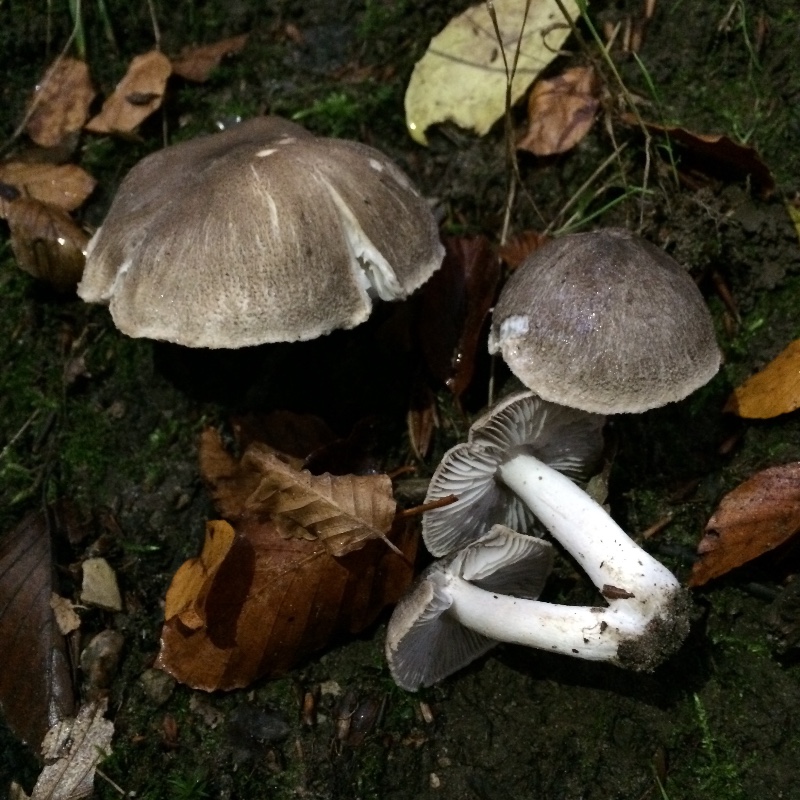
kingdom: Fungi
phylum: Basidiomycota
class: Agaricomycetes
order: Agaricales
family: Tricholomataceae
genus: Tricholoma
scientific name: Tricholoma terreum
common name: jordfarvet ridderhat
